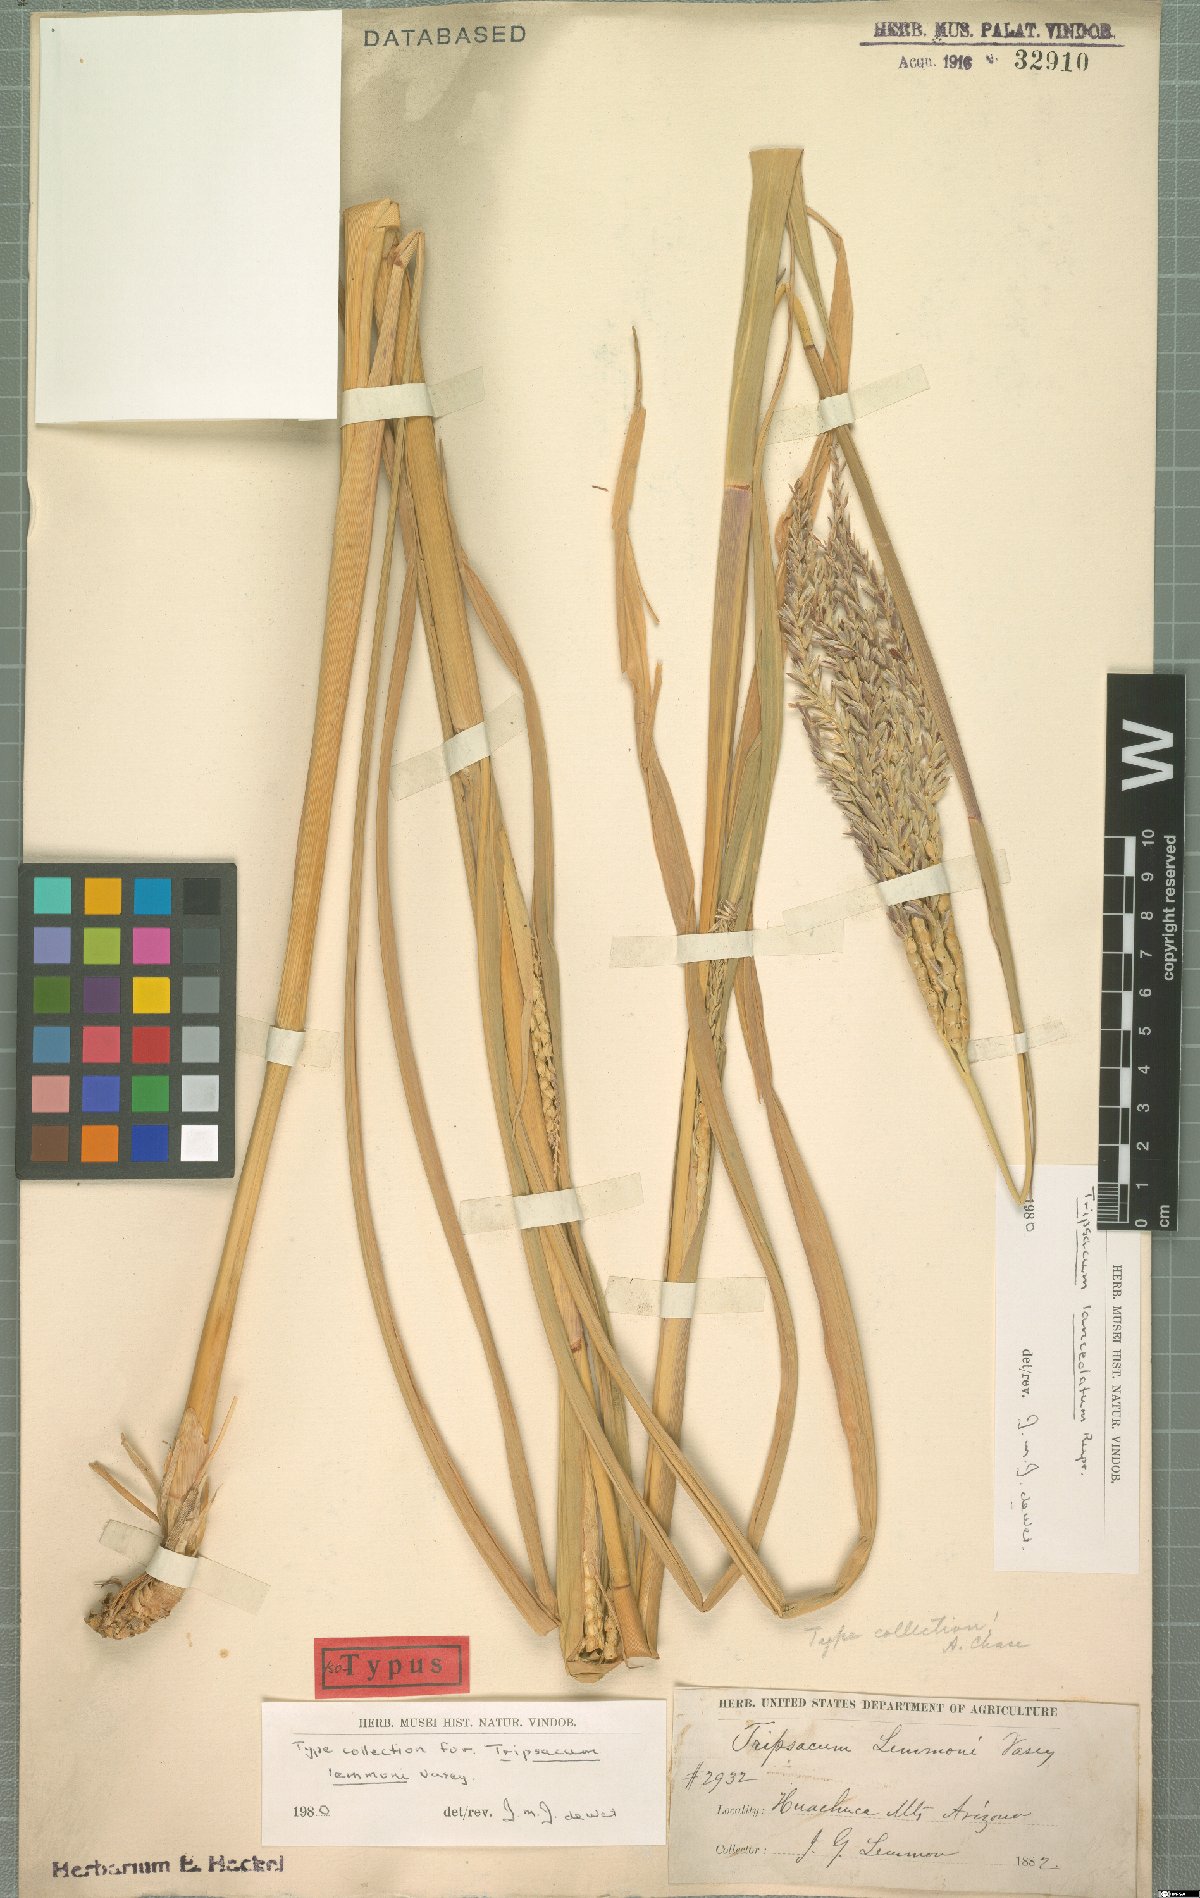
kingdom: Plantae
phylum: Tracheophyta
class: Liliopsida
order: Poales
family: Poaceae
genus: Tripsacum
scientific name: Tripsacum lanceolatum
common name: Mexican gama grass
